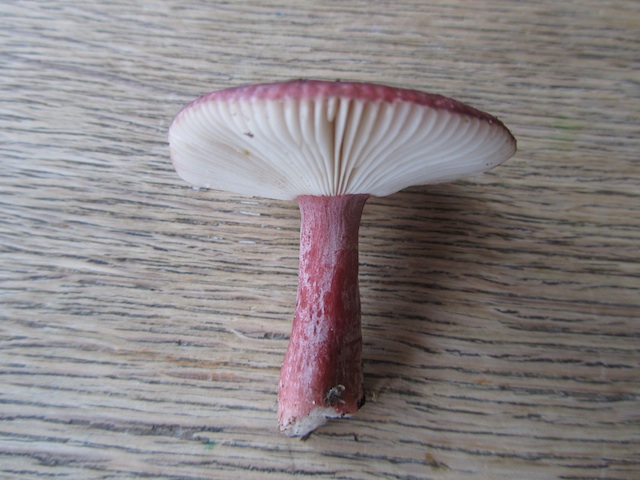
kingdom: Fungi
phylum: Basidiomycota
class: Agaricomycetes
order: Russulales
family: Russulaceae
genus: Russula
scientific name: Russula queletii
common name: Quélets skørhat
